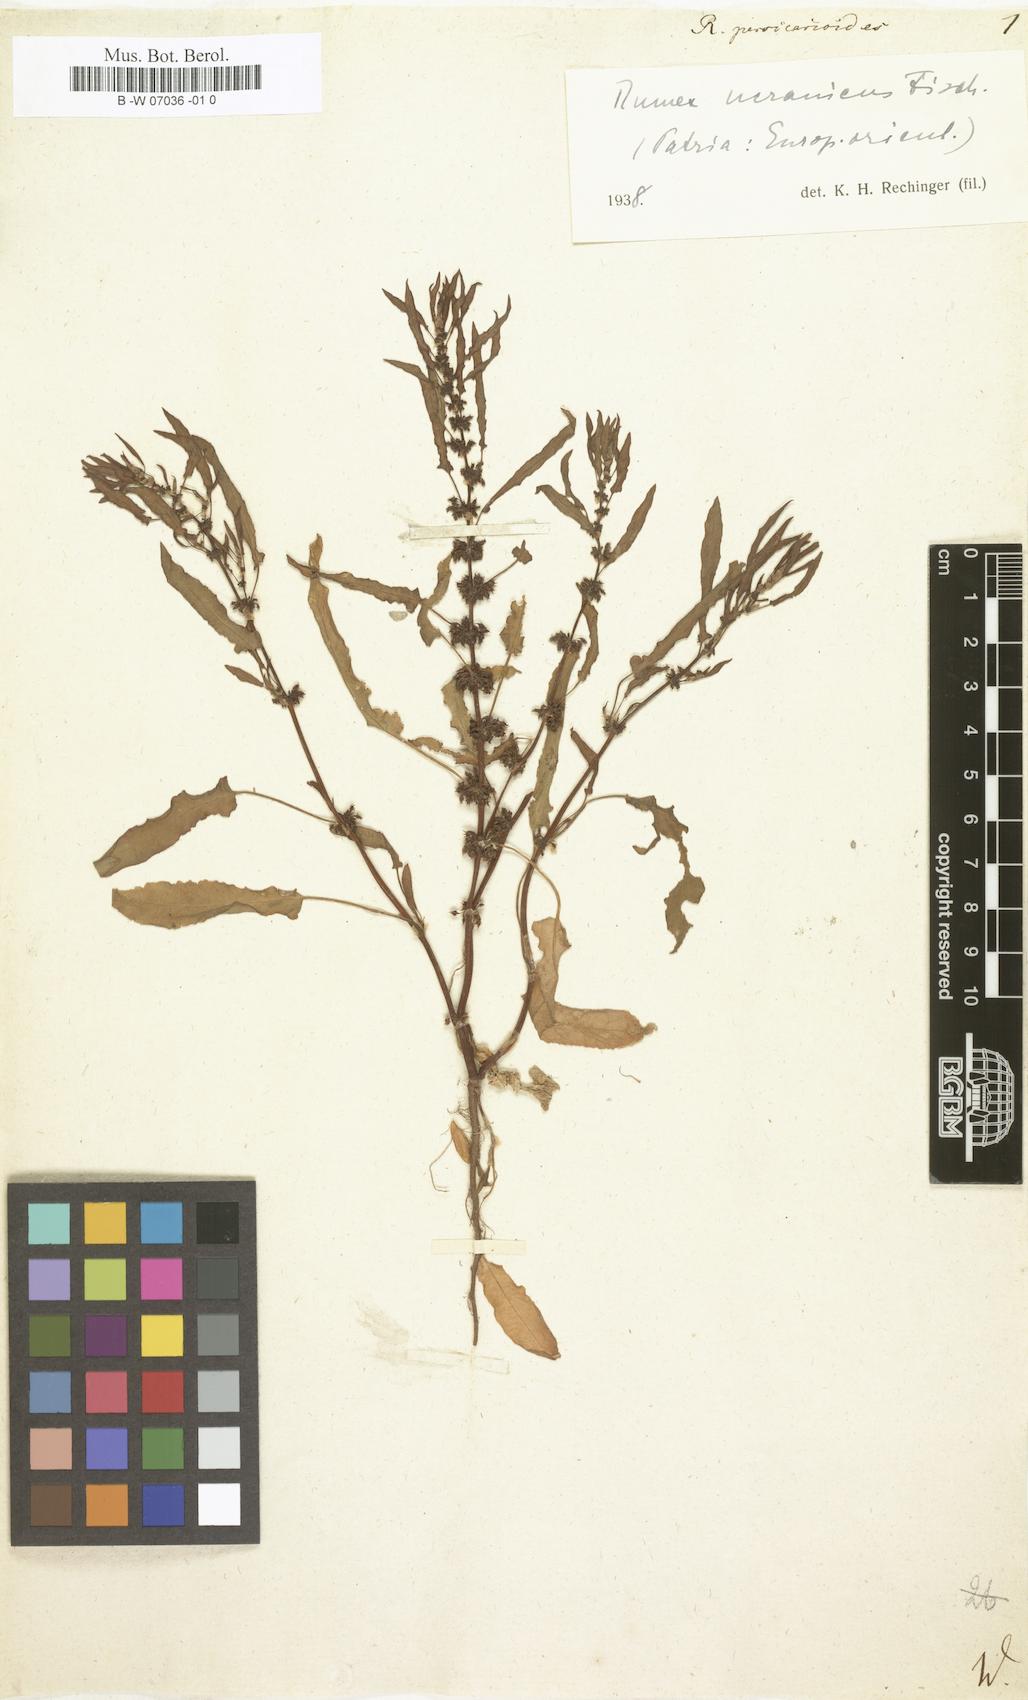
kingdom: Plantae
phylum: Tracheophyta
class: Magnoliopsida
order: Caryophyllales
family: Polygonaceae
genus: Rumex
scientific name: Rumex persicarioides
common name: Peach-leaved dock
